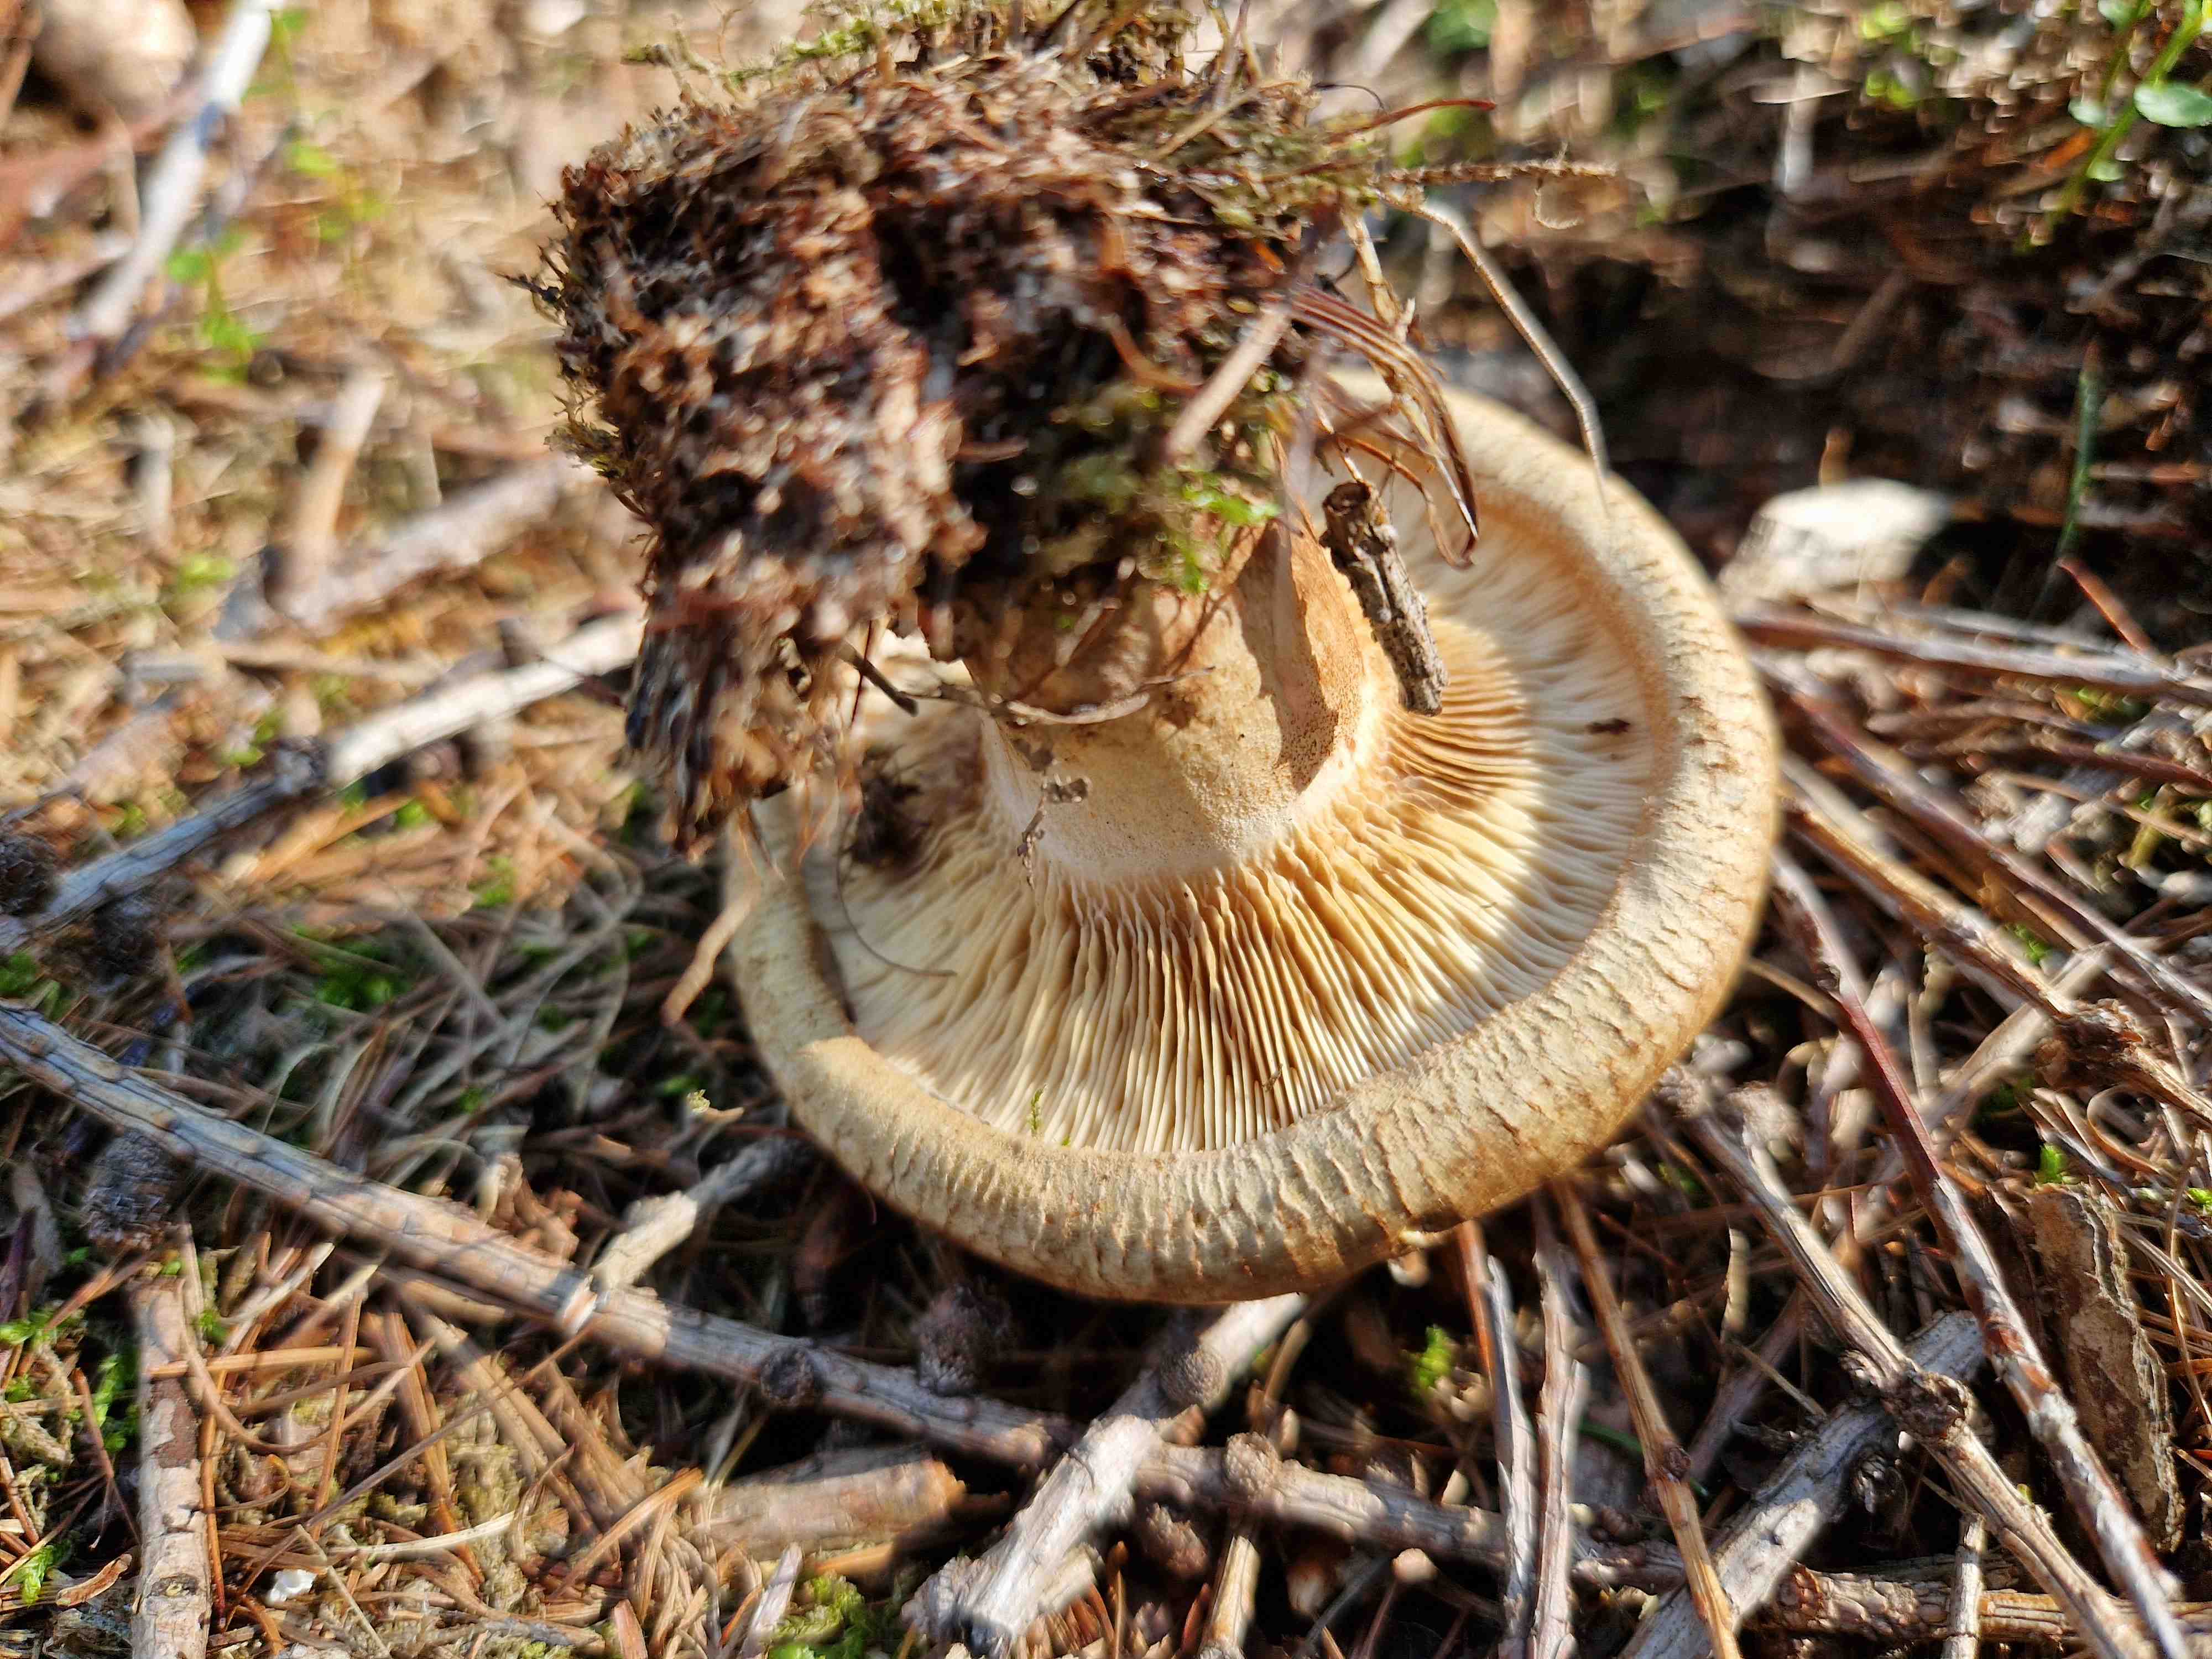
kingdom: Fungi
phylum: Basidiomycota
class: Agaricomycetes
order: Boletales
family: Paxillaceae
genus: Paxillus
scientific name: Paxillus involutus
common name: almindelig netbladhat
